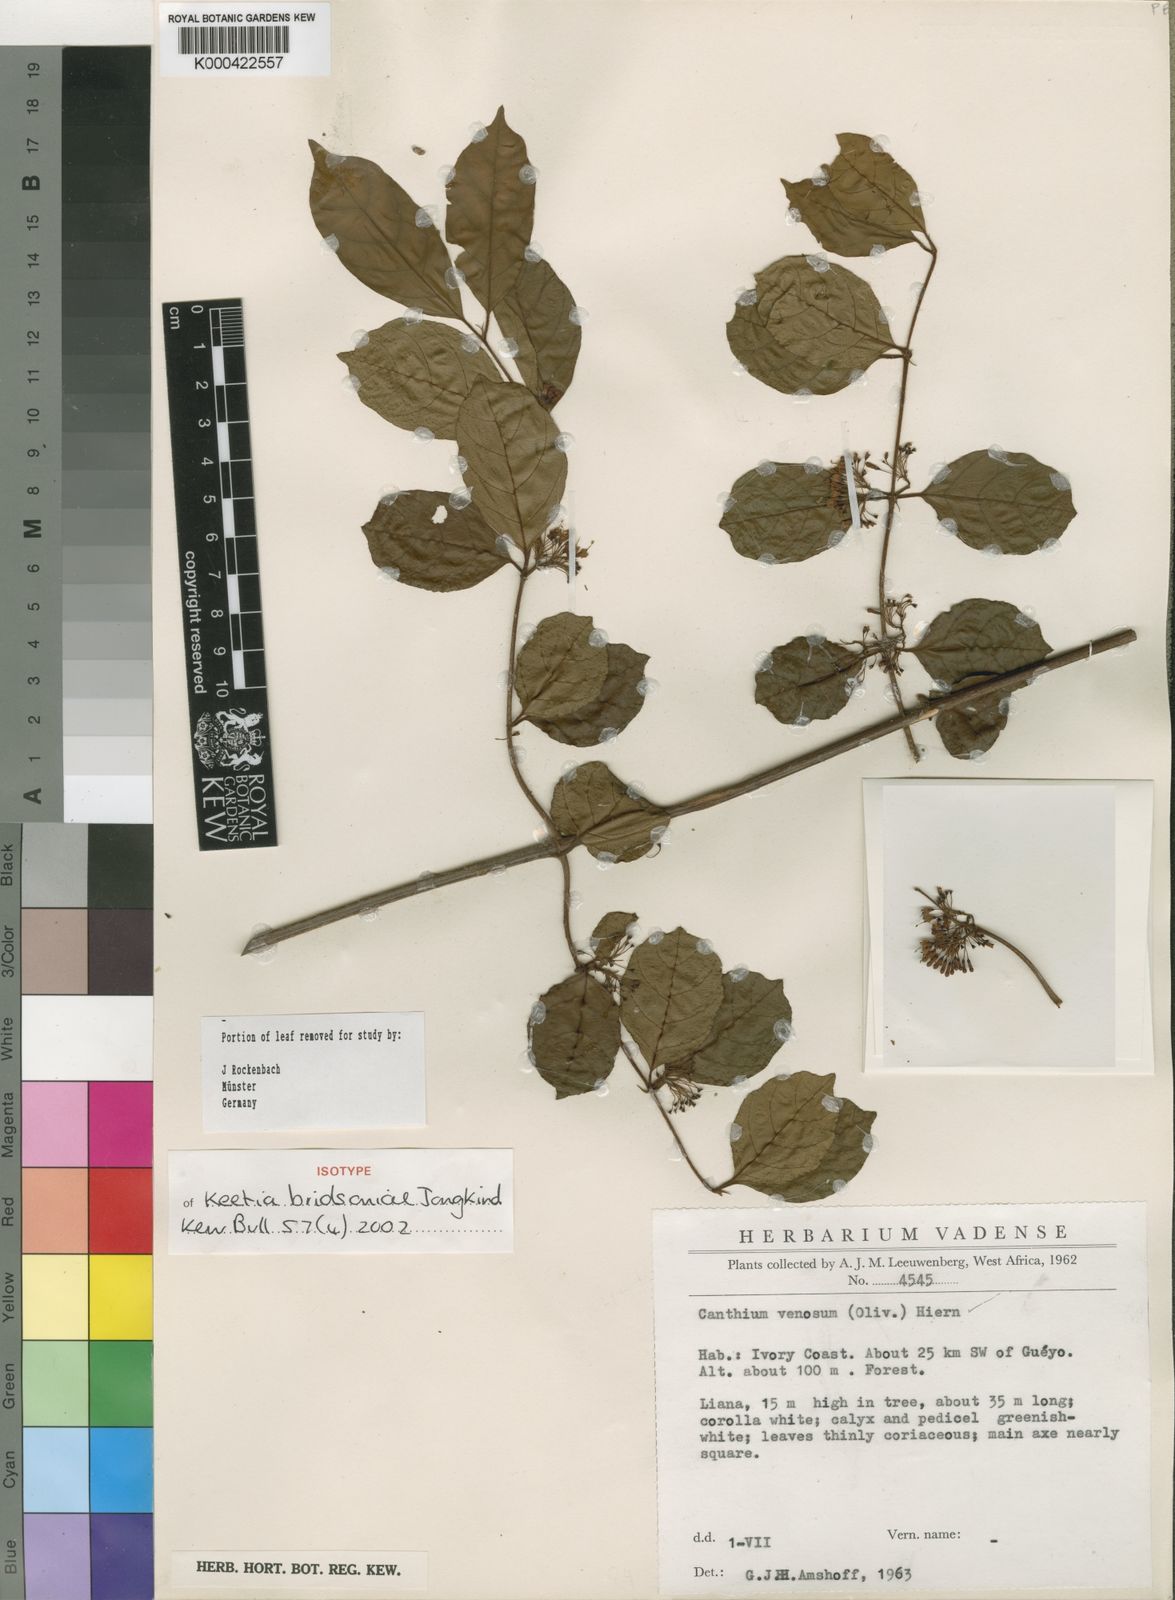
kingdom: Plantae
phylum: Tracheophyta
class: Magnoliopsida
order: Gentianales
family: Rubiaceae
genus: Keetia
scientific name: Keetia bridsoniae
